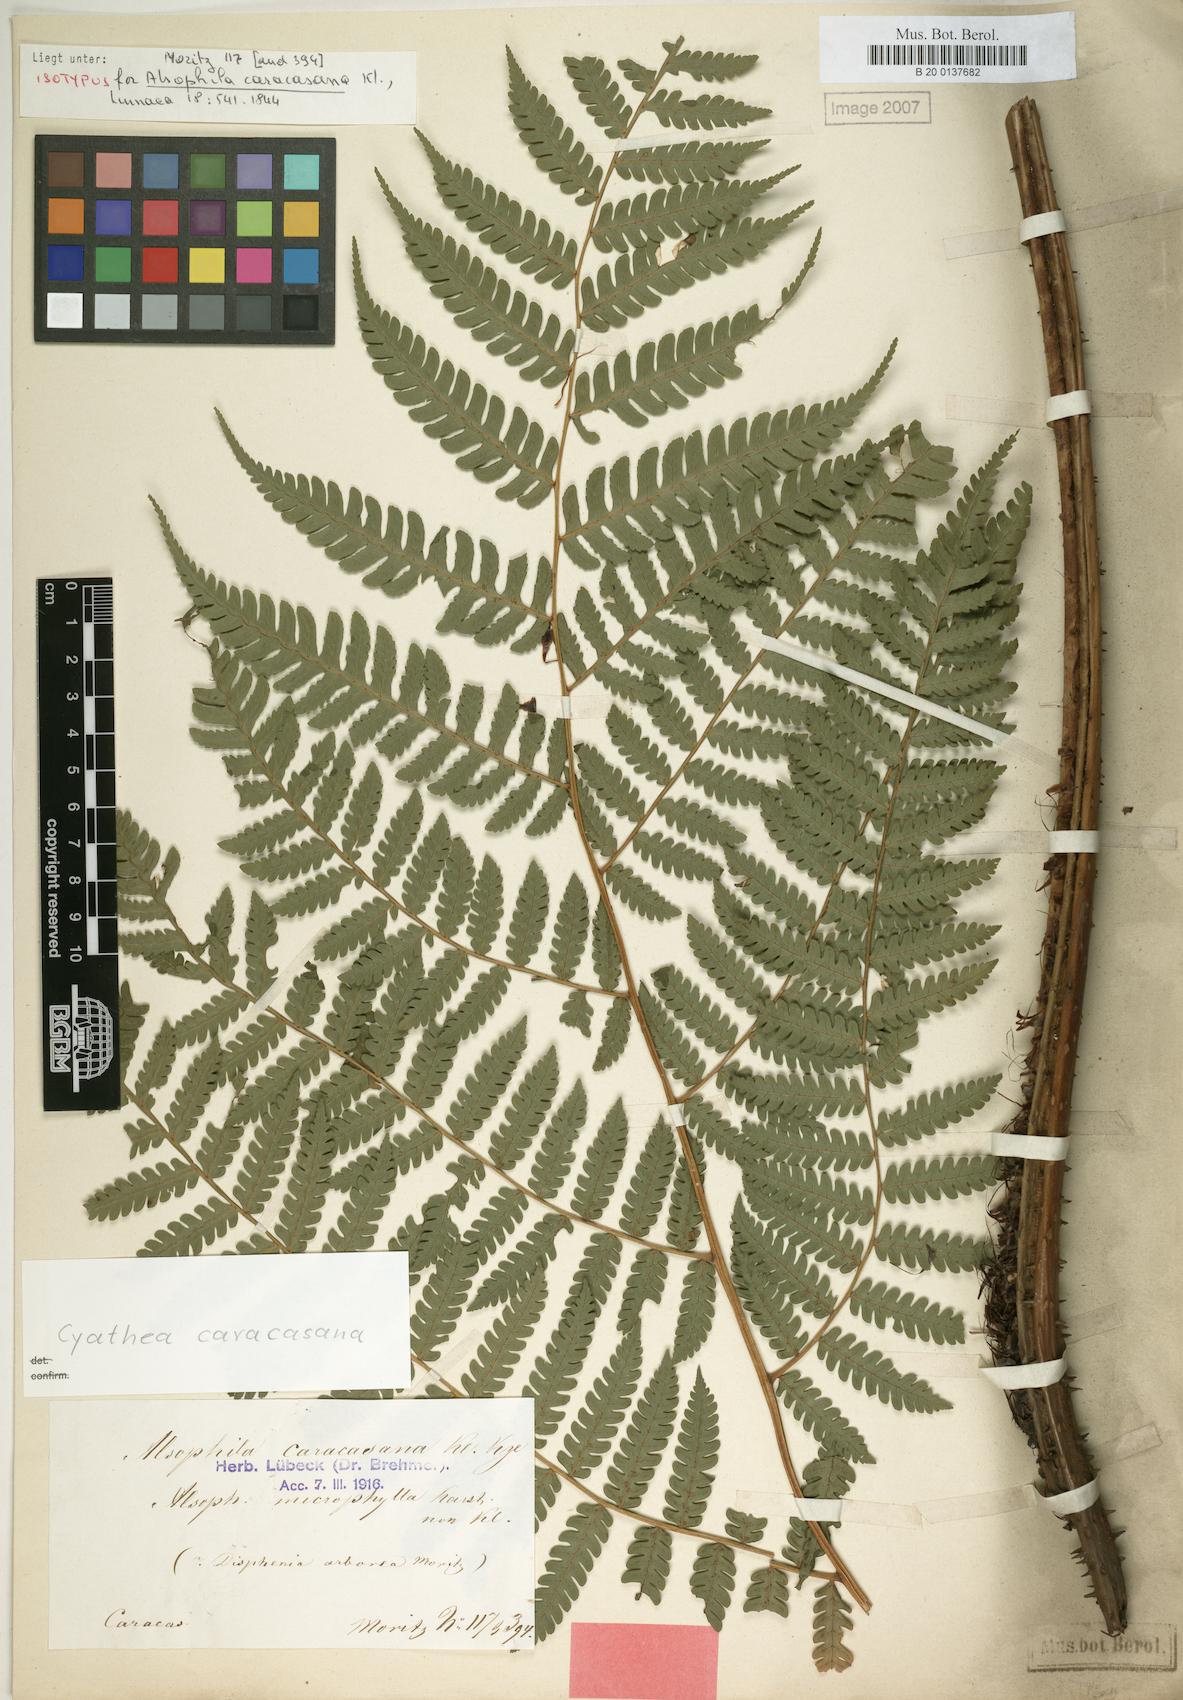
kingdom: Plantae
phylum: Tracheophyta
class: Polypodiopsida
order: Cyatheales
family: Cyatheaceae
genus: Cyathea
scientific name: Cyathea caracasana
